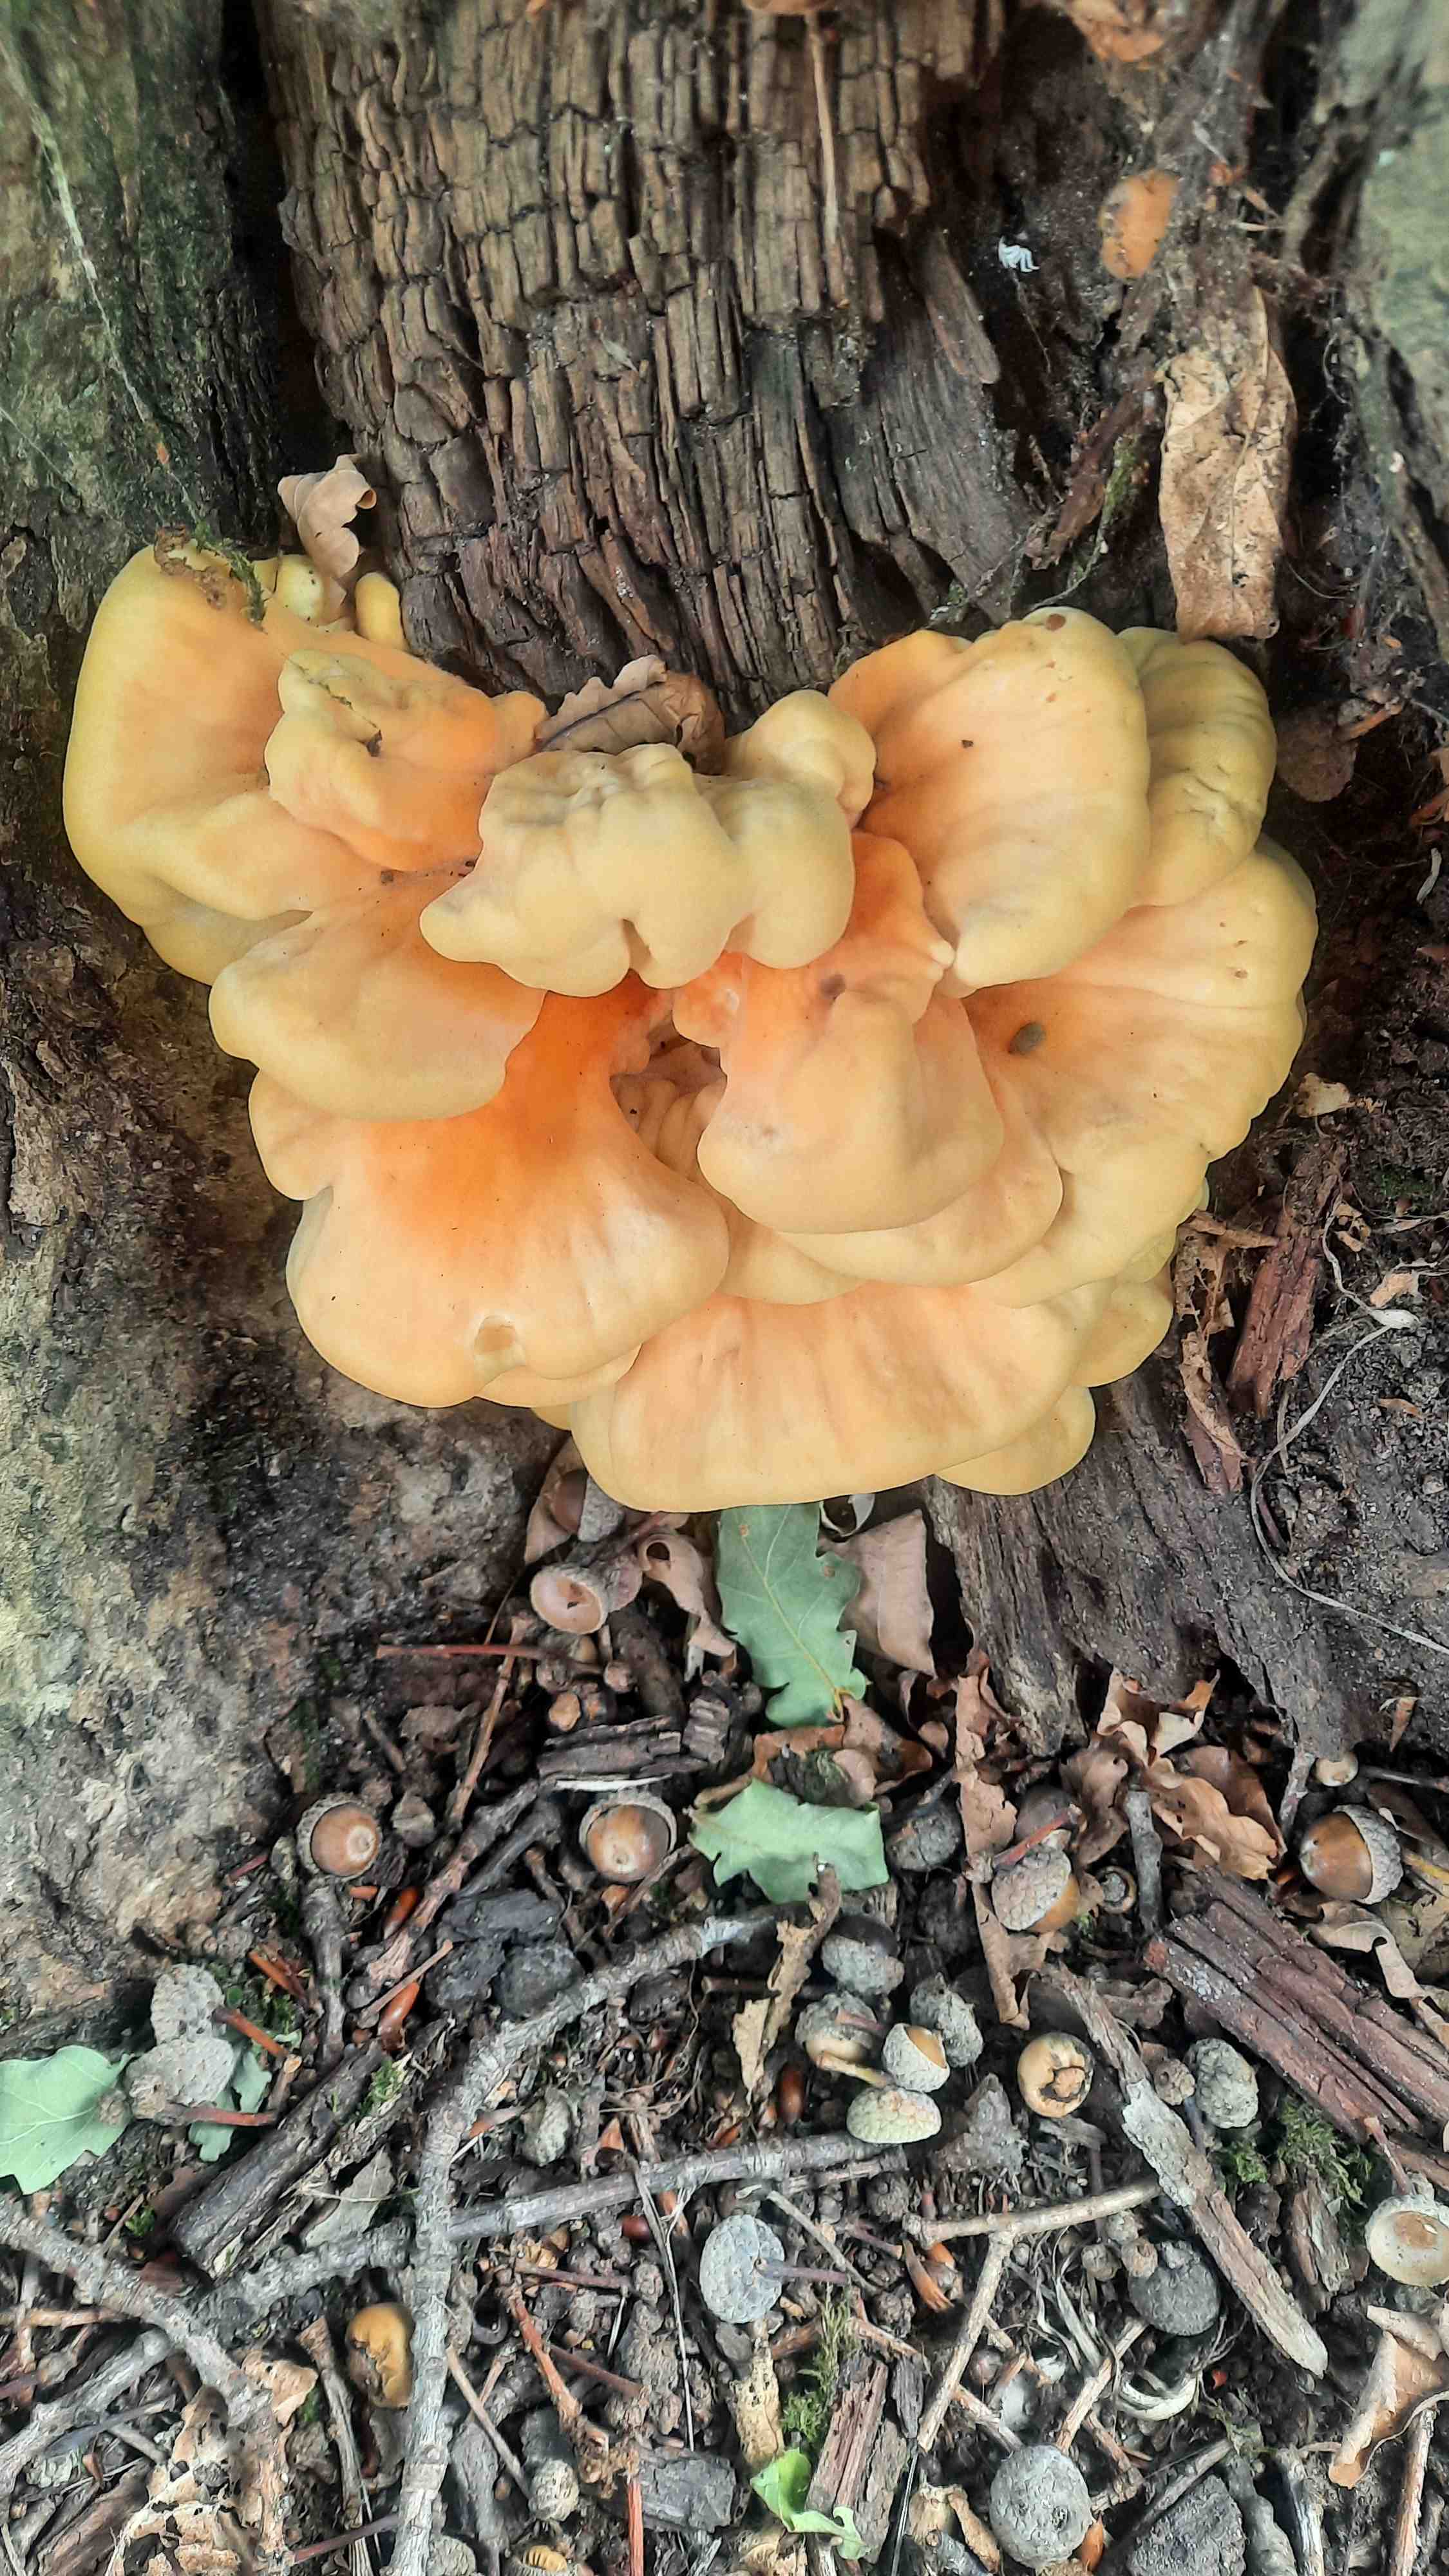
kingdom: Fungi
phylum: Basidiomycota
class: Agaricomycetes
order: Polyporales
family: Laetiporaceae
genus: Laetiporus
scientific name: Laetiporus sulphureus
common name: svovlporesvamp
